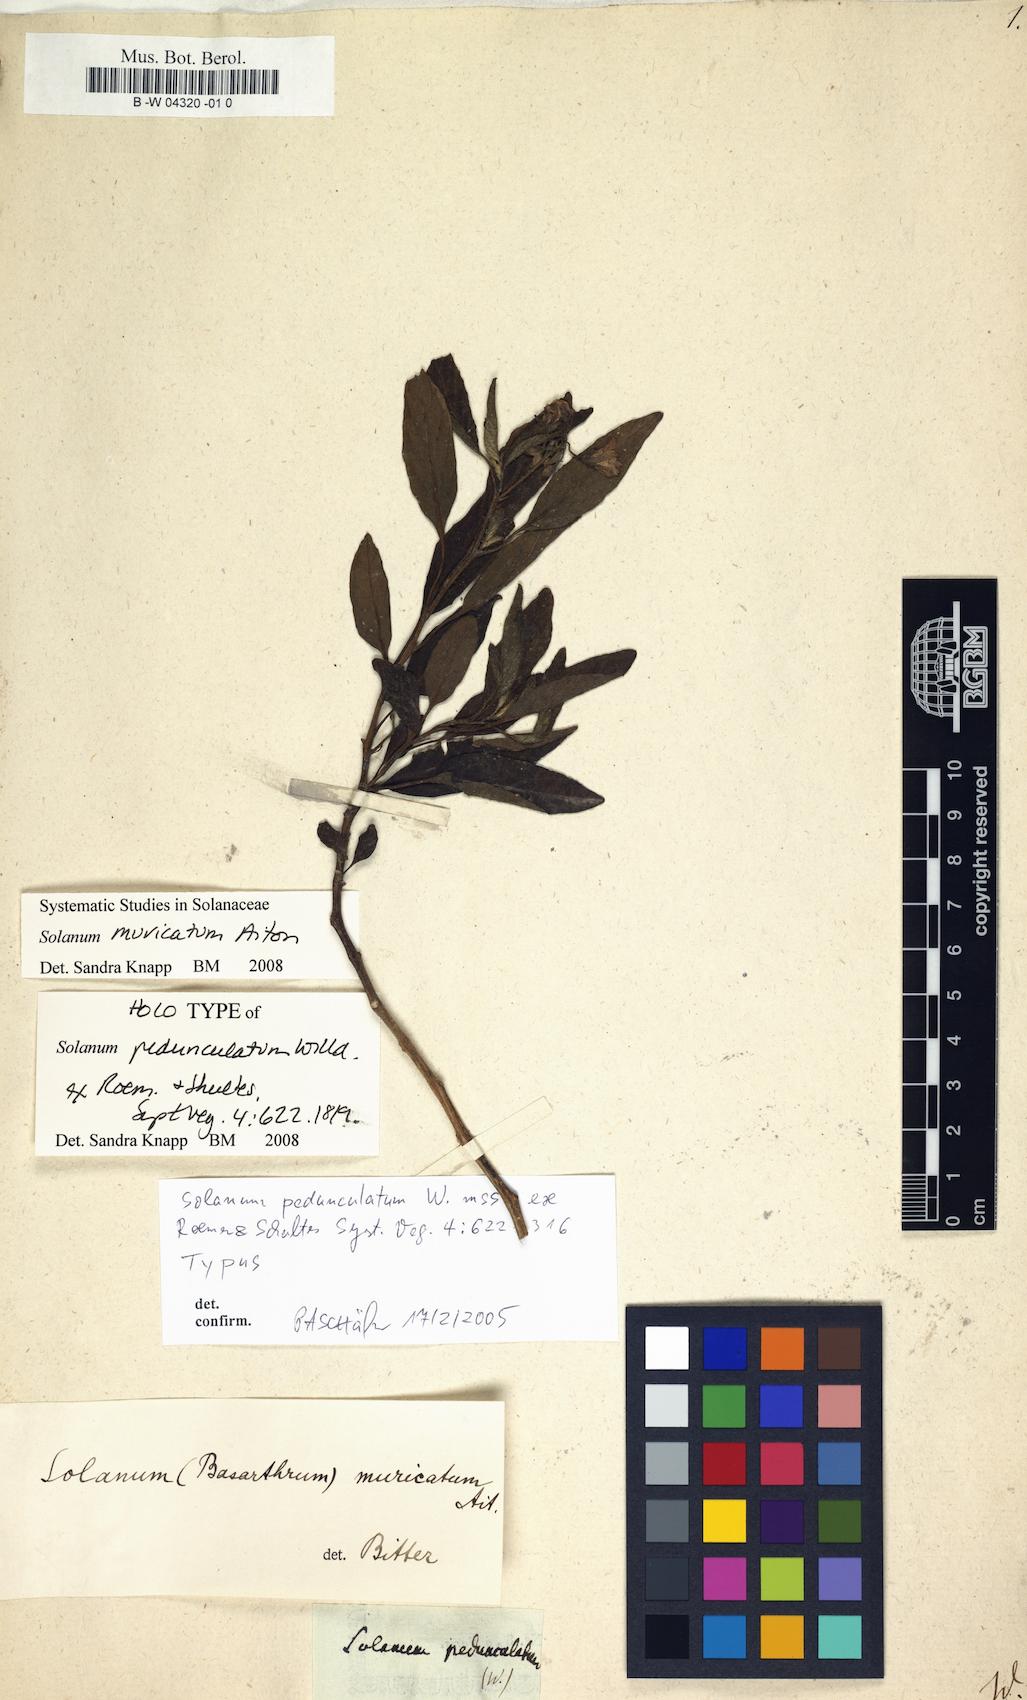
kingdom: Plantae
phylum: Tracheophyta
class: Magnoliopsida
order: Solanales
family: Solanaceae
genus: Solanum
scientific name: Solanum muricatum
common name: Peruvian pepino
